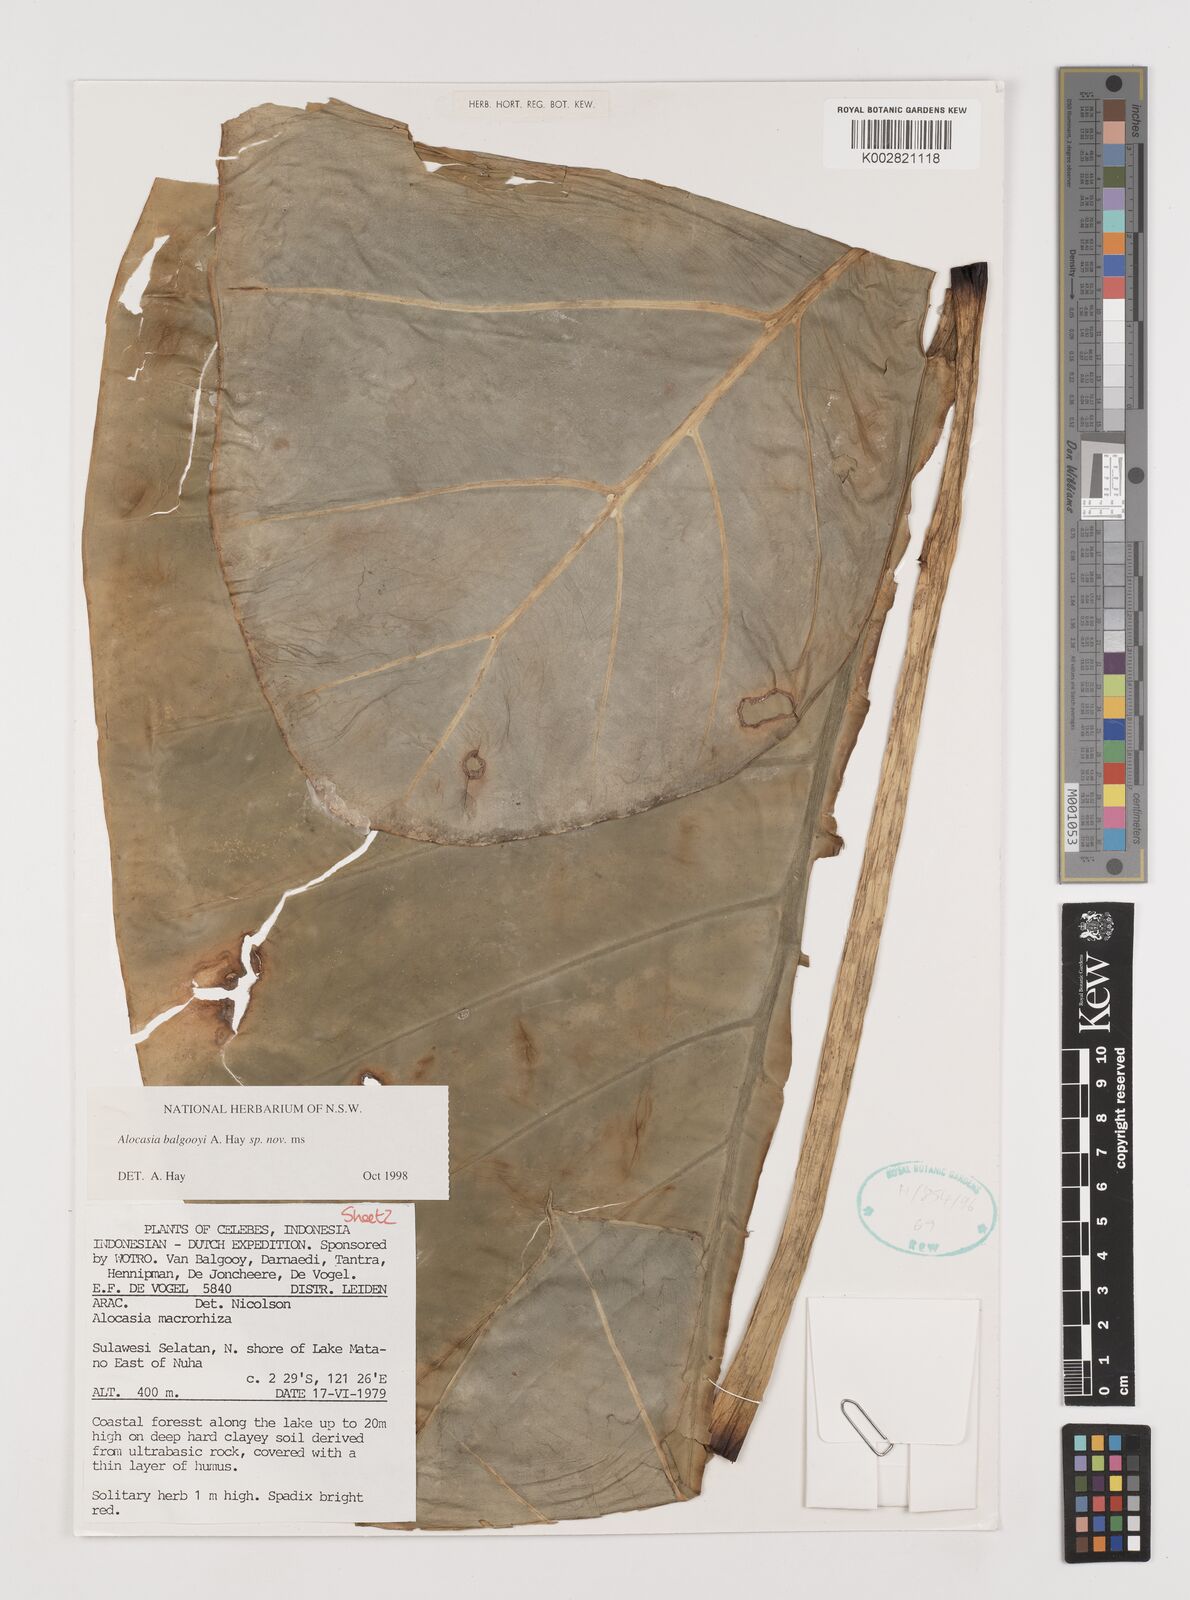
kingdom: Plantae
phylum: Tracheophyta
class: Liliopsida
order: Alismatales
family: Araceae
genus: Alocasia
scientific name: Alocasia balgooyi
